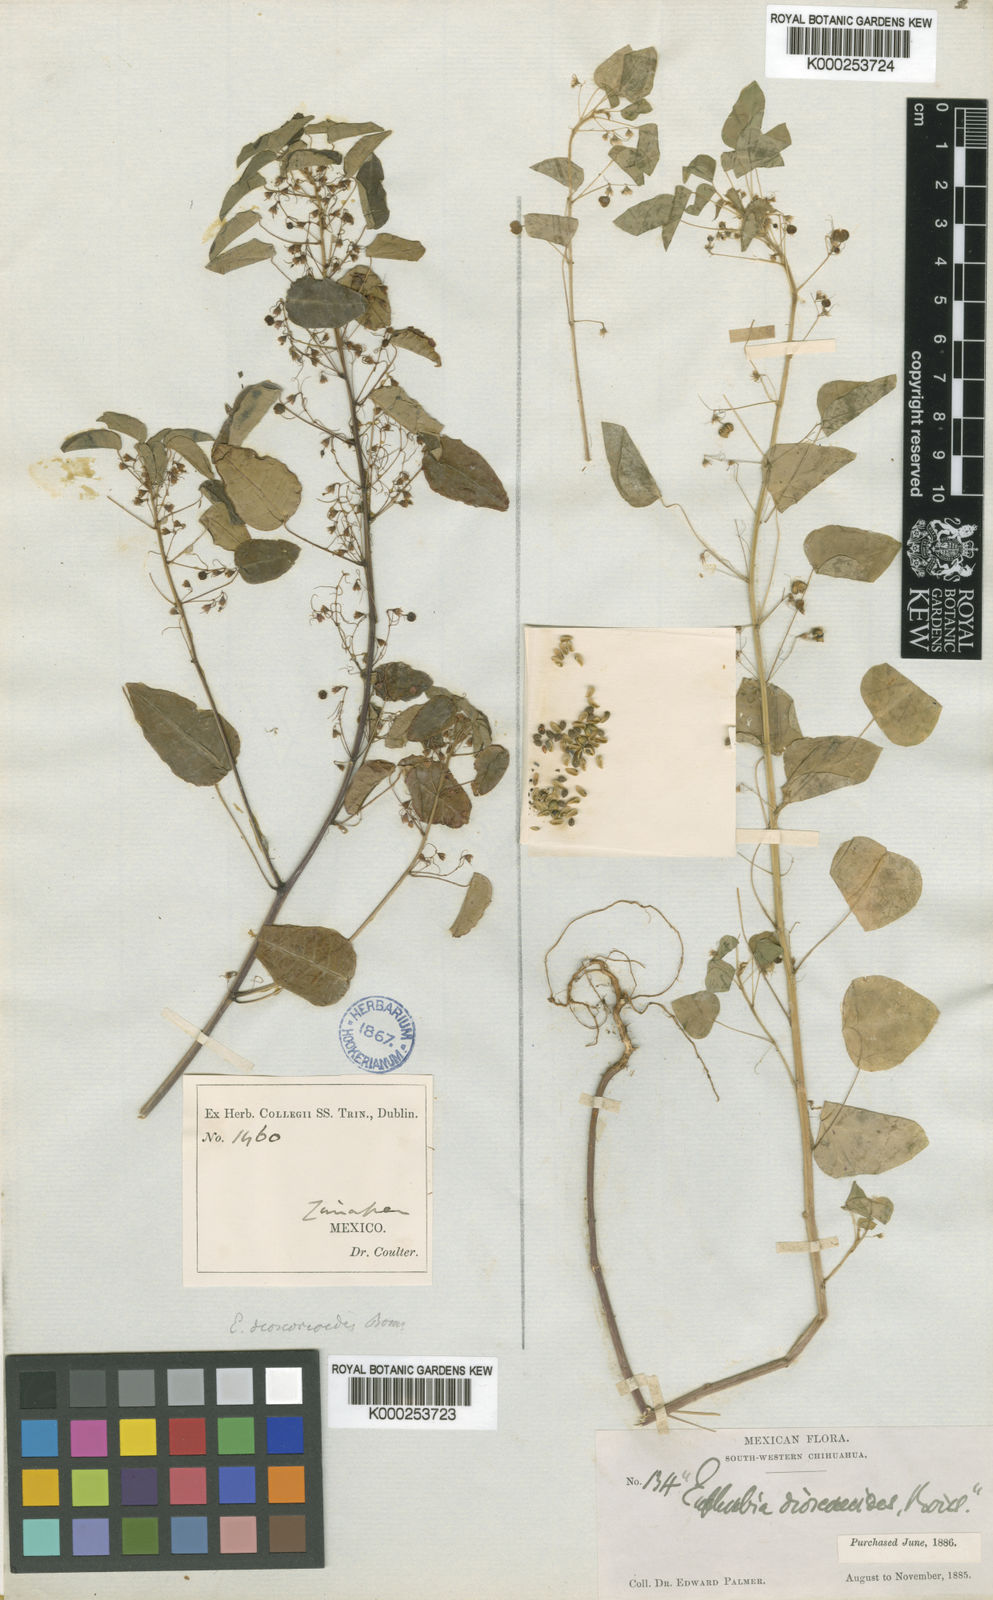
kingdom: Plantae
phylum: Tracheophyta
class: Magnoliopsida
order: Malpighiales
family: Euphorbiaceae
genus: Euphorbia
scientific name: Euphorbia dioscoreoides
